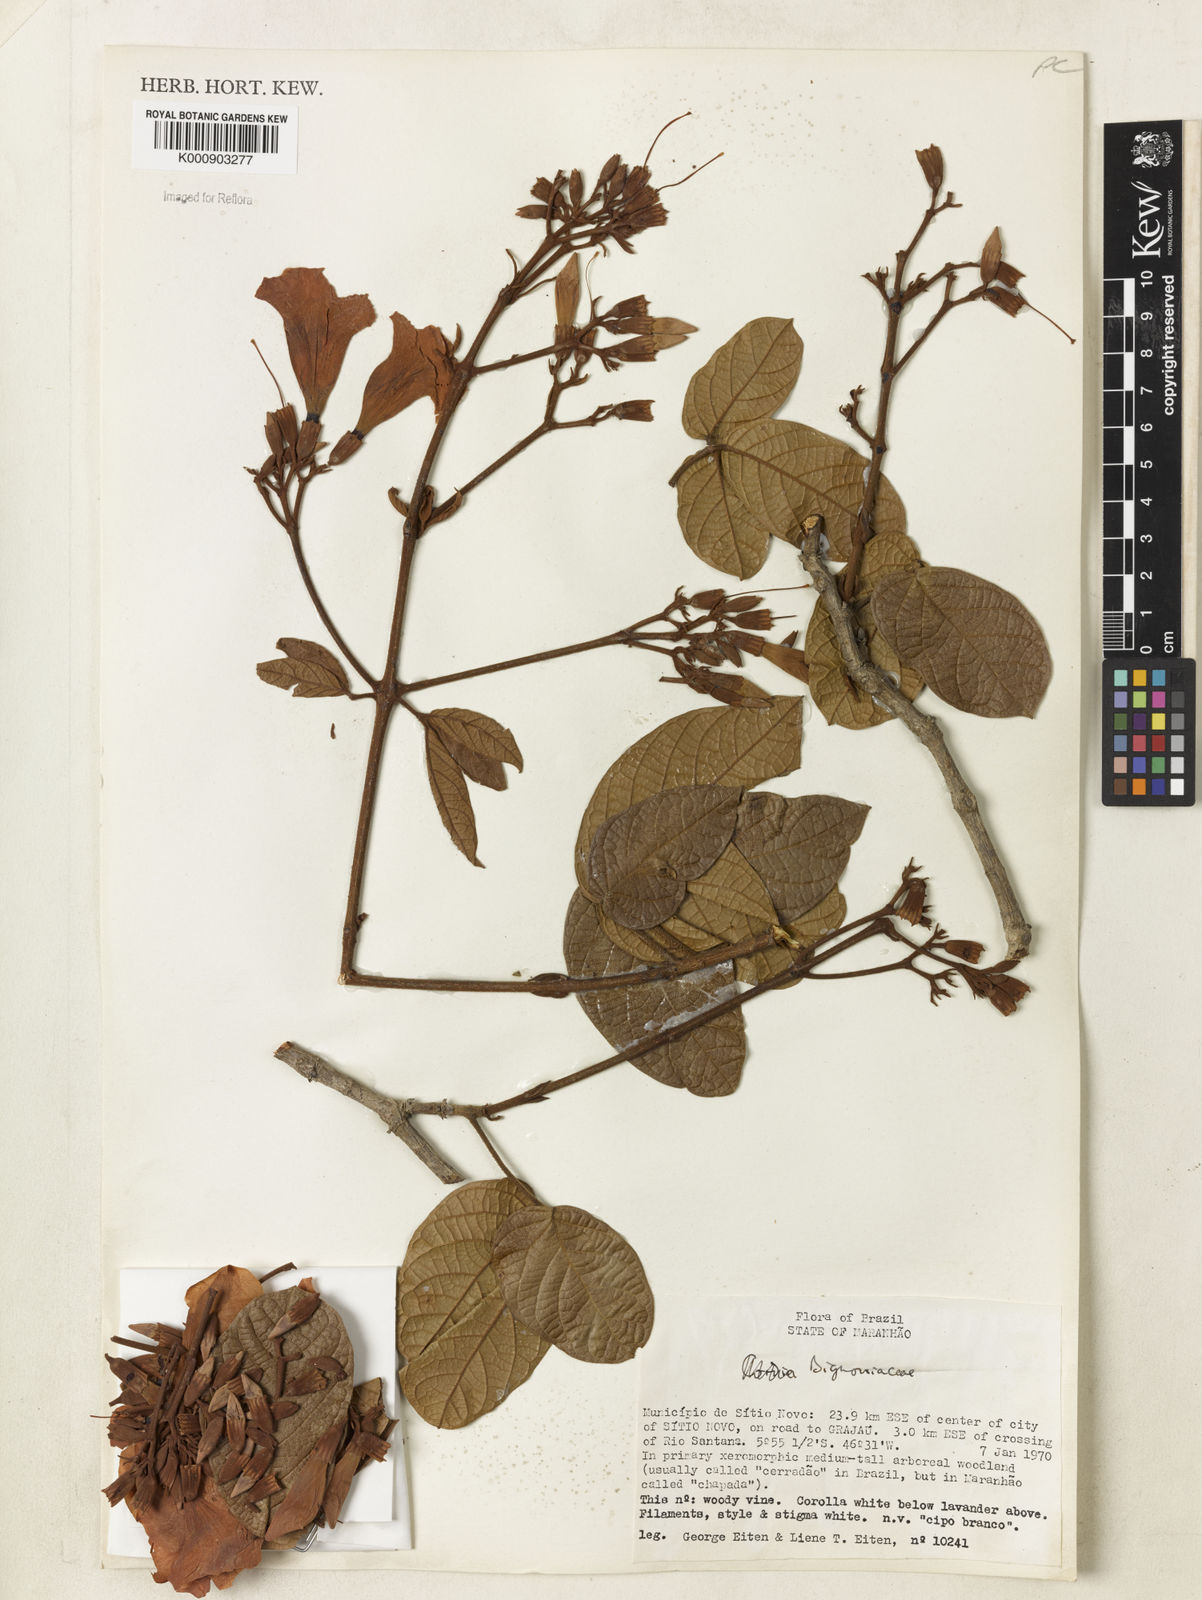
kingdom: Plantae
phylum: Tracheophyta
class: Magnoliopsida
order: Lamiales
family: Bignoniaceae
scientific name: Bignoniaceae
